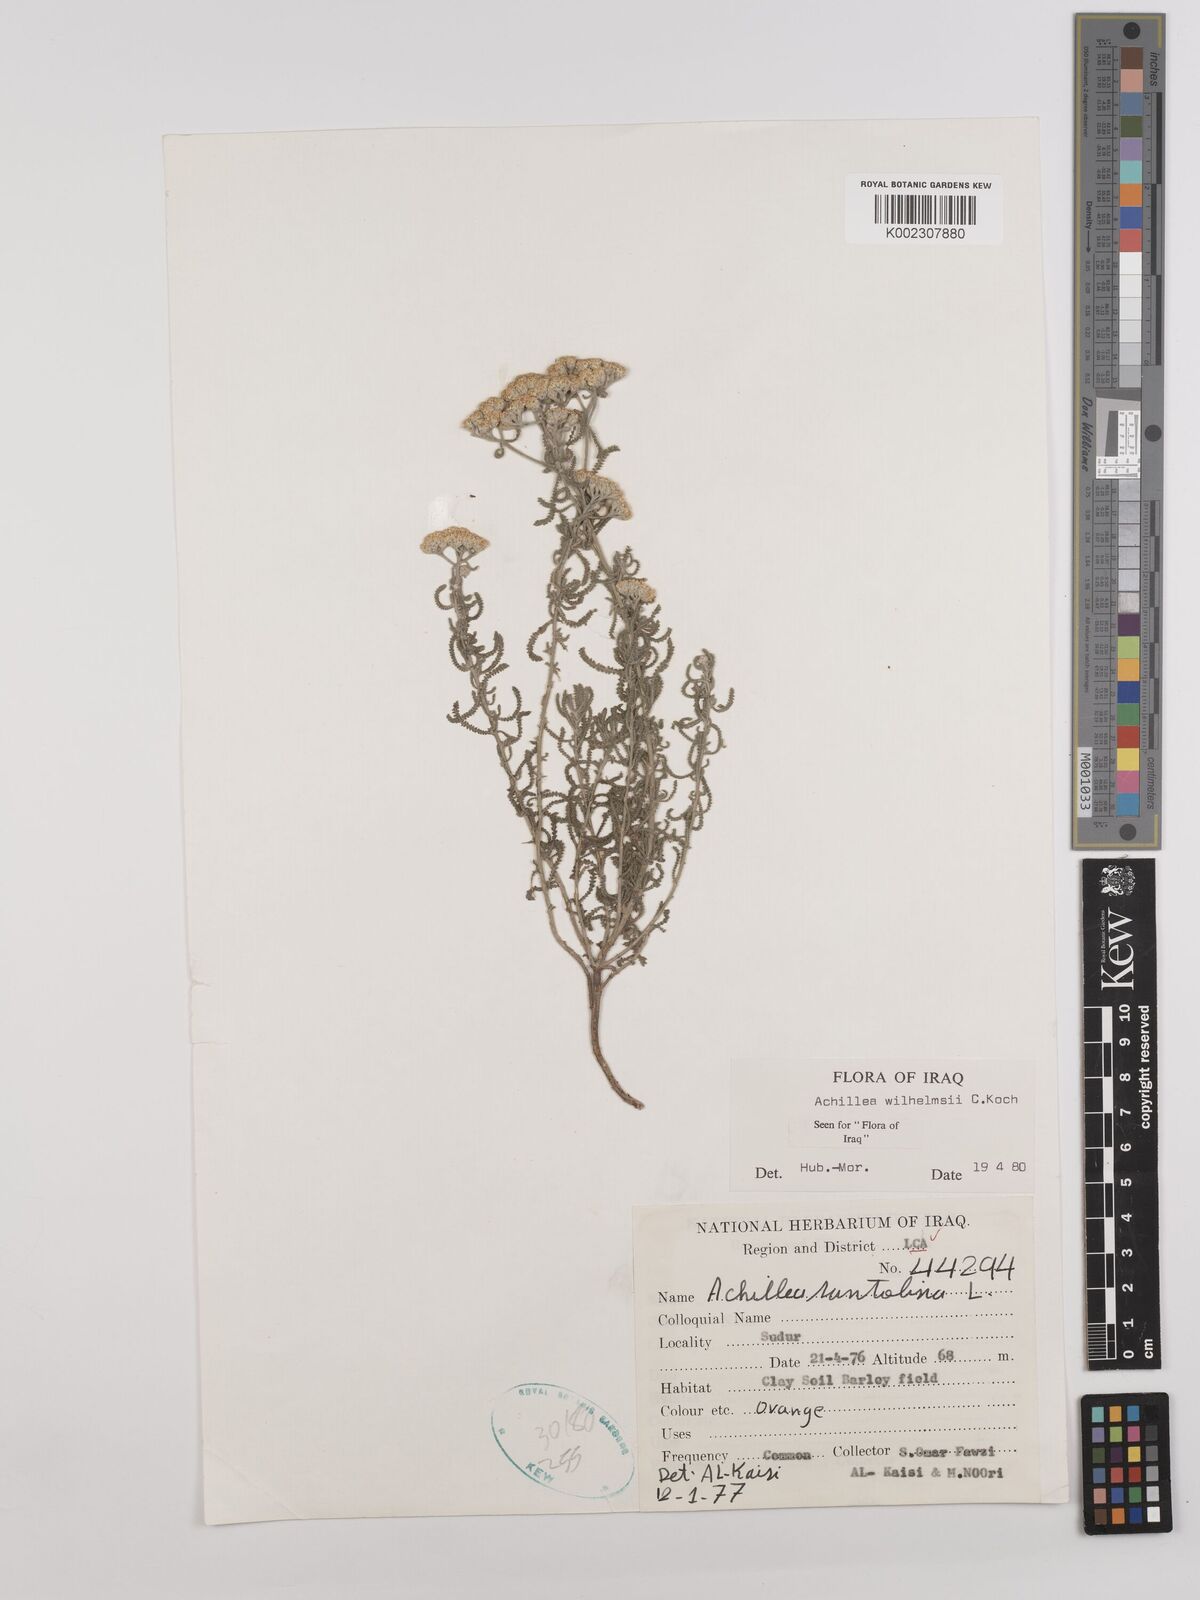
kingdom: Plantae
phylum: Tracheophyta
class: Magnoliopsida
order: Asterales
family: Asteraceae
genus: Achillea
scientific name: Achillea wilhelmsii
